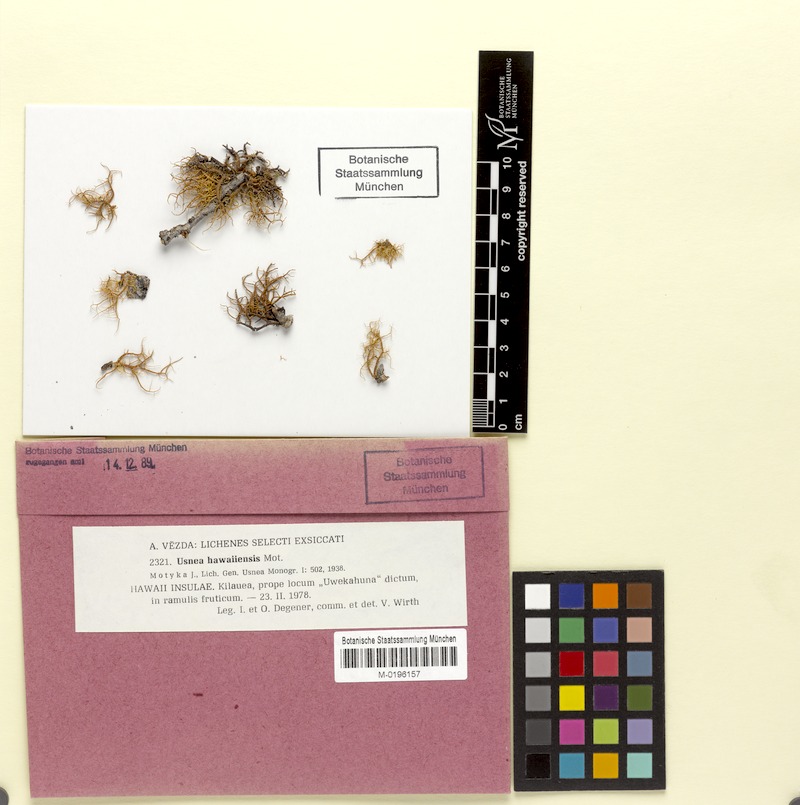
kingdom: Fungi
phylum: Ascomycota
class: Lecanoromycetes
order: Lecanorales
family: Parmeliaceae
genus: Usnea
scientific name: Usnea hawaiiensis
